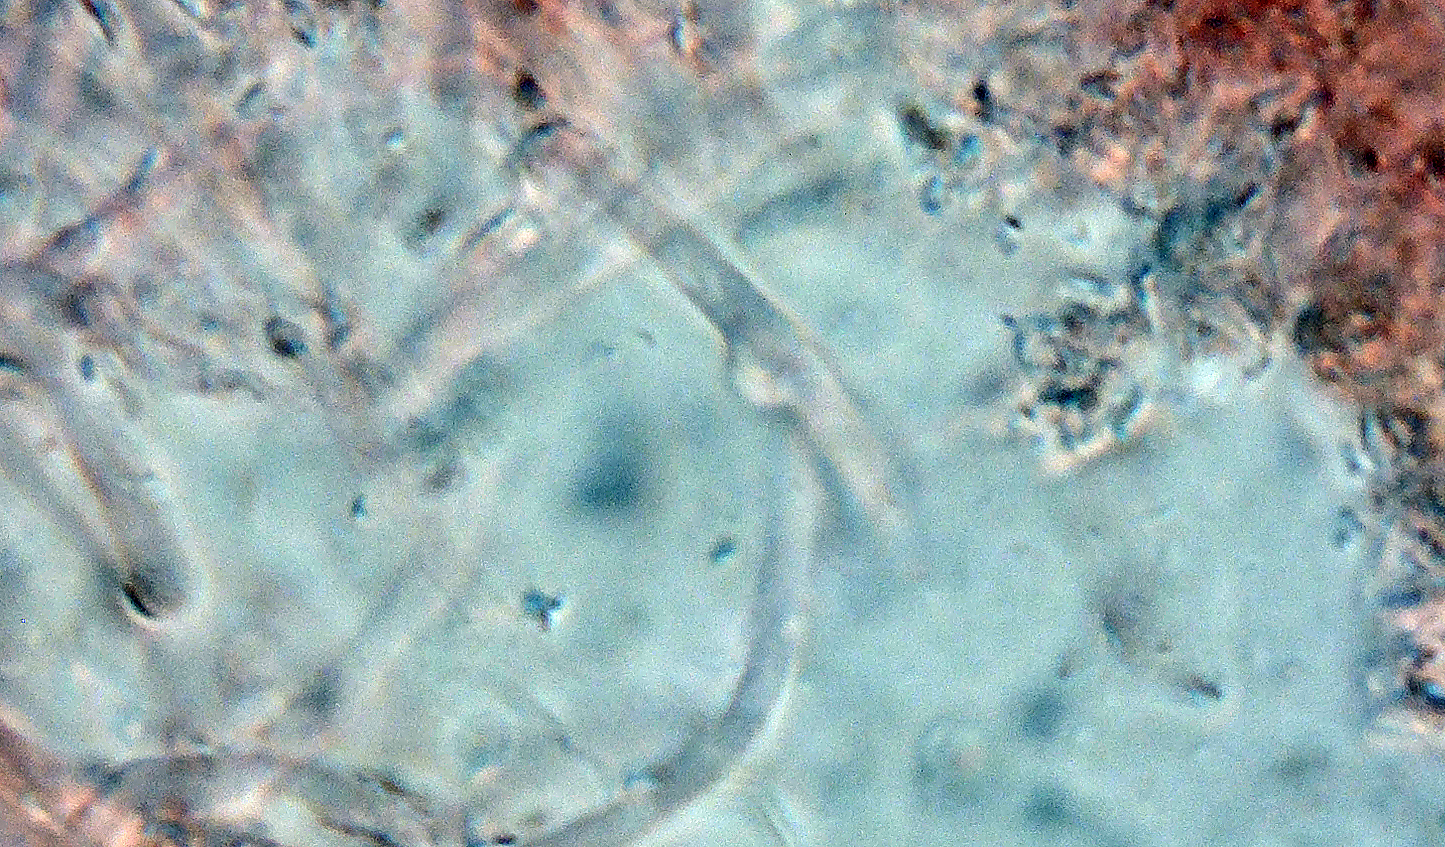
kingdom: Fungi
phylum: Basidiomycota
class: Agaricomycetes
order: Polyporales
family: Polyporaceae
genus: Erastia
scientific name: Erastia ochraceolateritia
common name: orange okkerporesvamp
